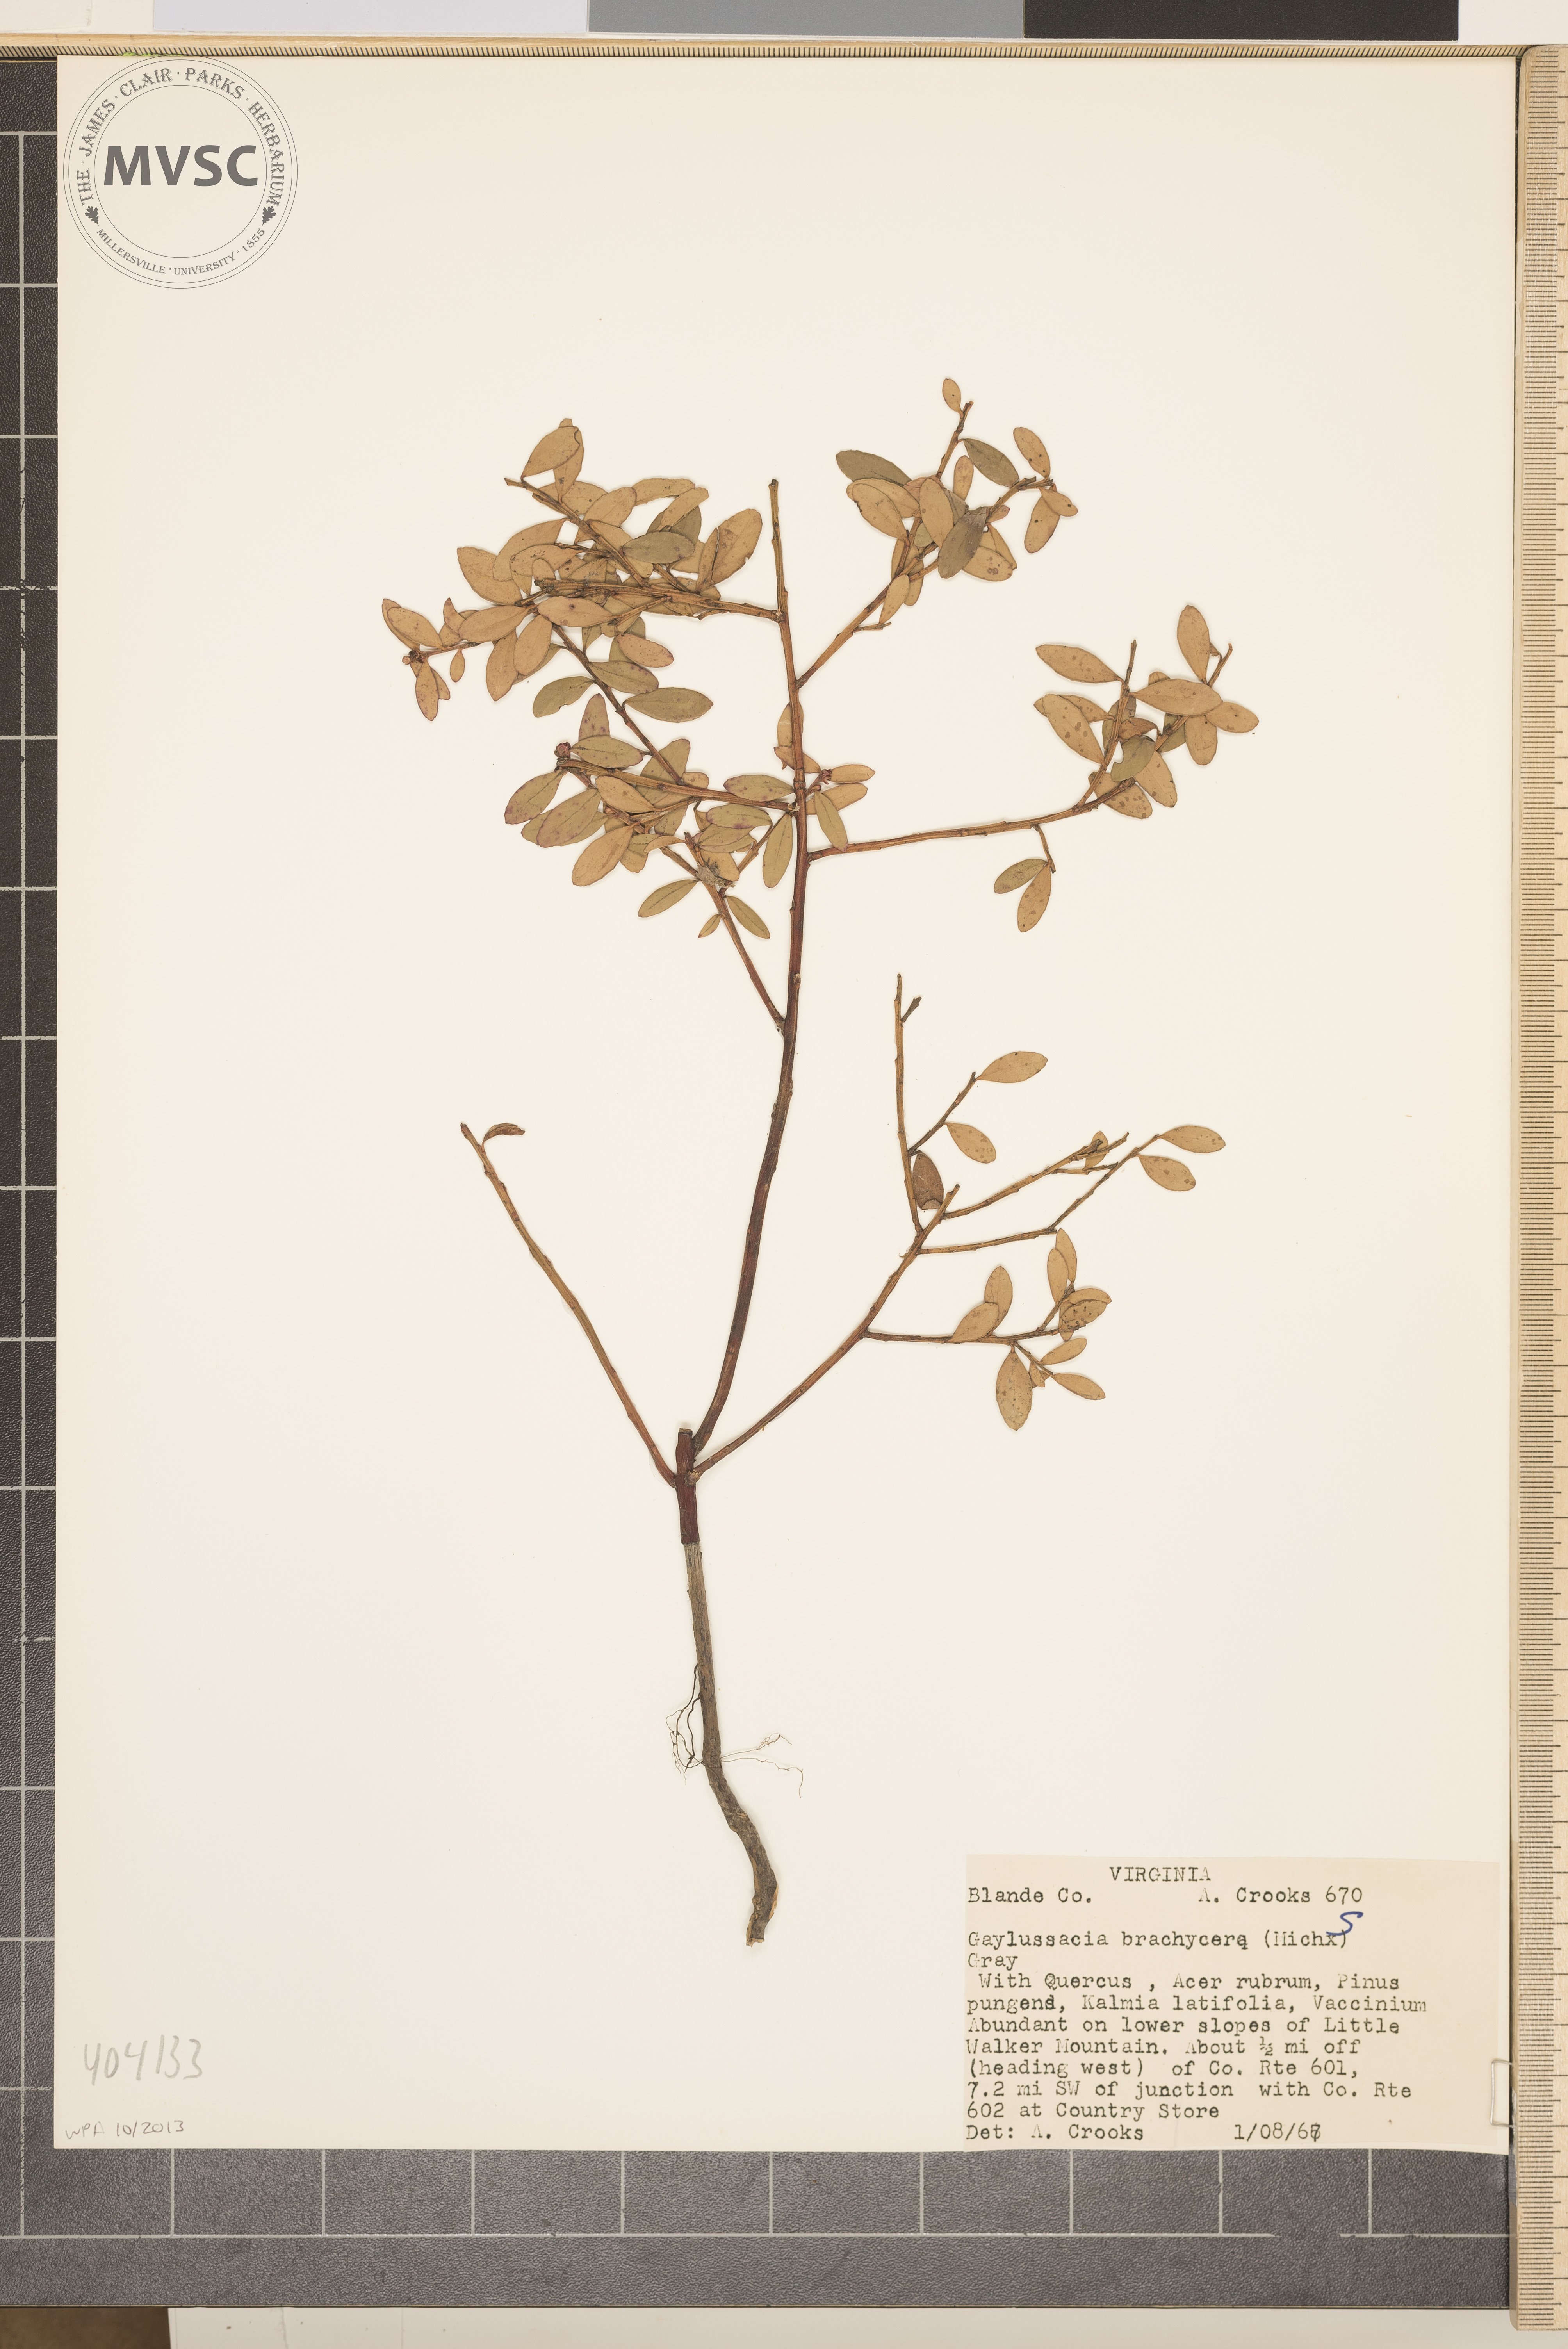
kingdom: Plantae
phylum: Tracheophyta
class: Magnoliopsida
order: Ericales
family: Ericaceae
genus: Gaylussacia
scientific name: Gaylussacia brachycera
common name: Box huckleberry
